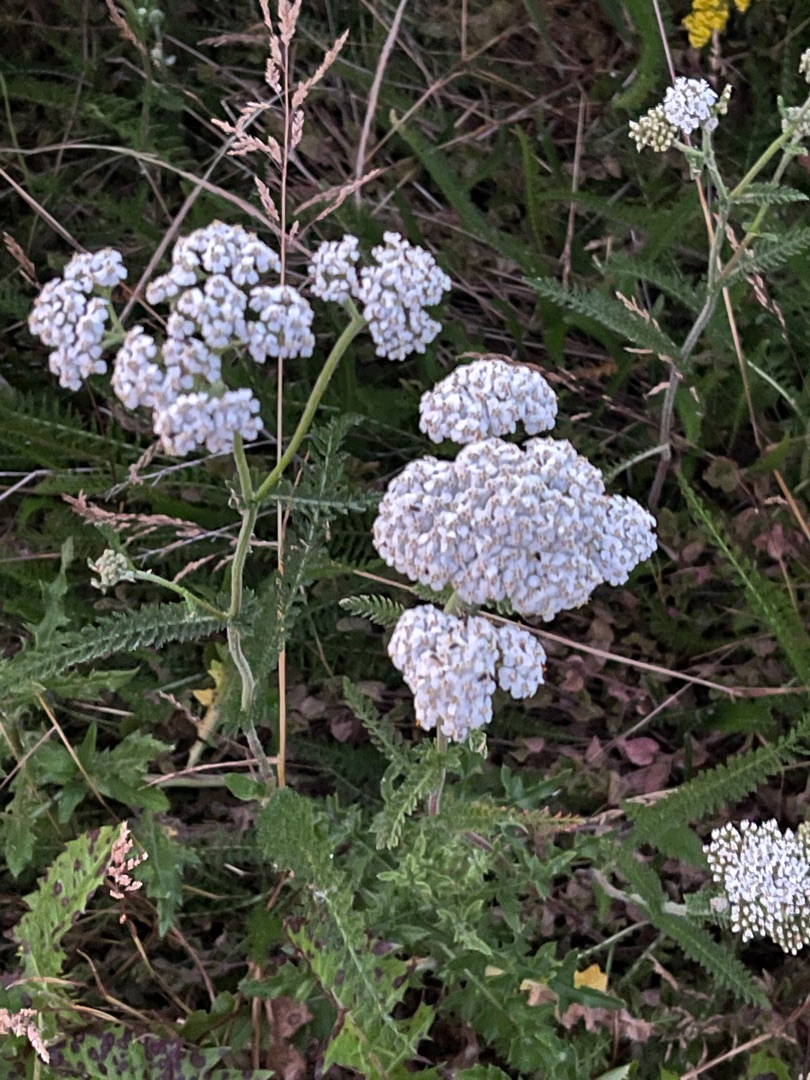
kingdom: Plantae
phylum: Tracheophyta
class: Magnoliopsida
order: Asterales
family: Asteraceae
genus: Achillea
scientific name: Achillea millefolium
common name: Almindelig røllike
